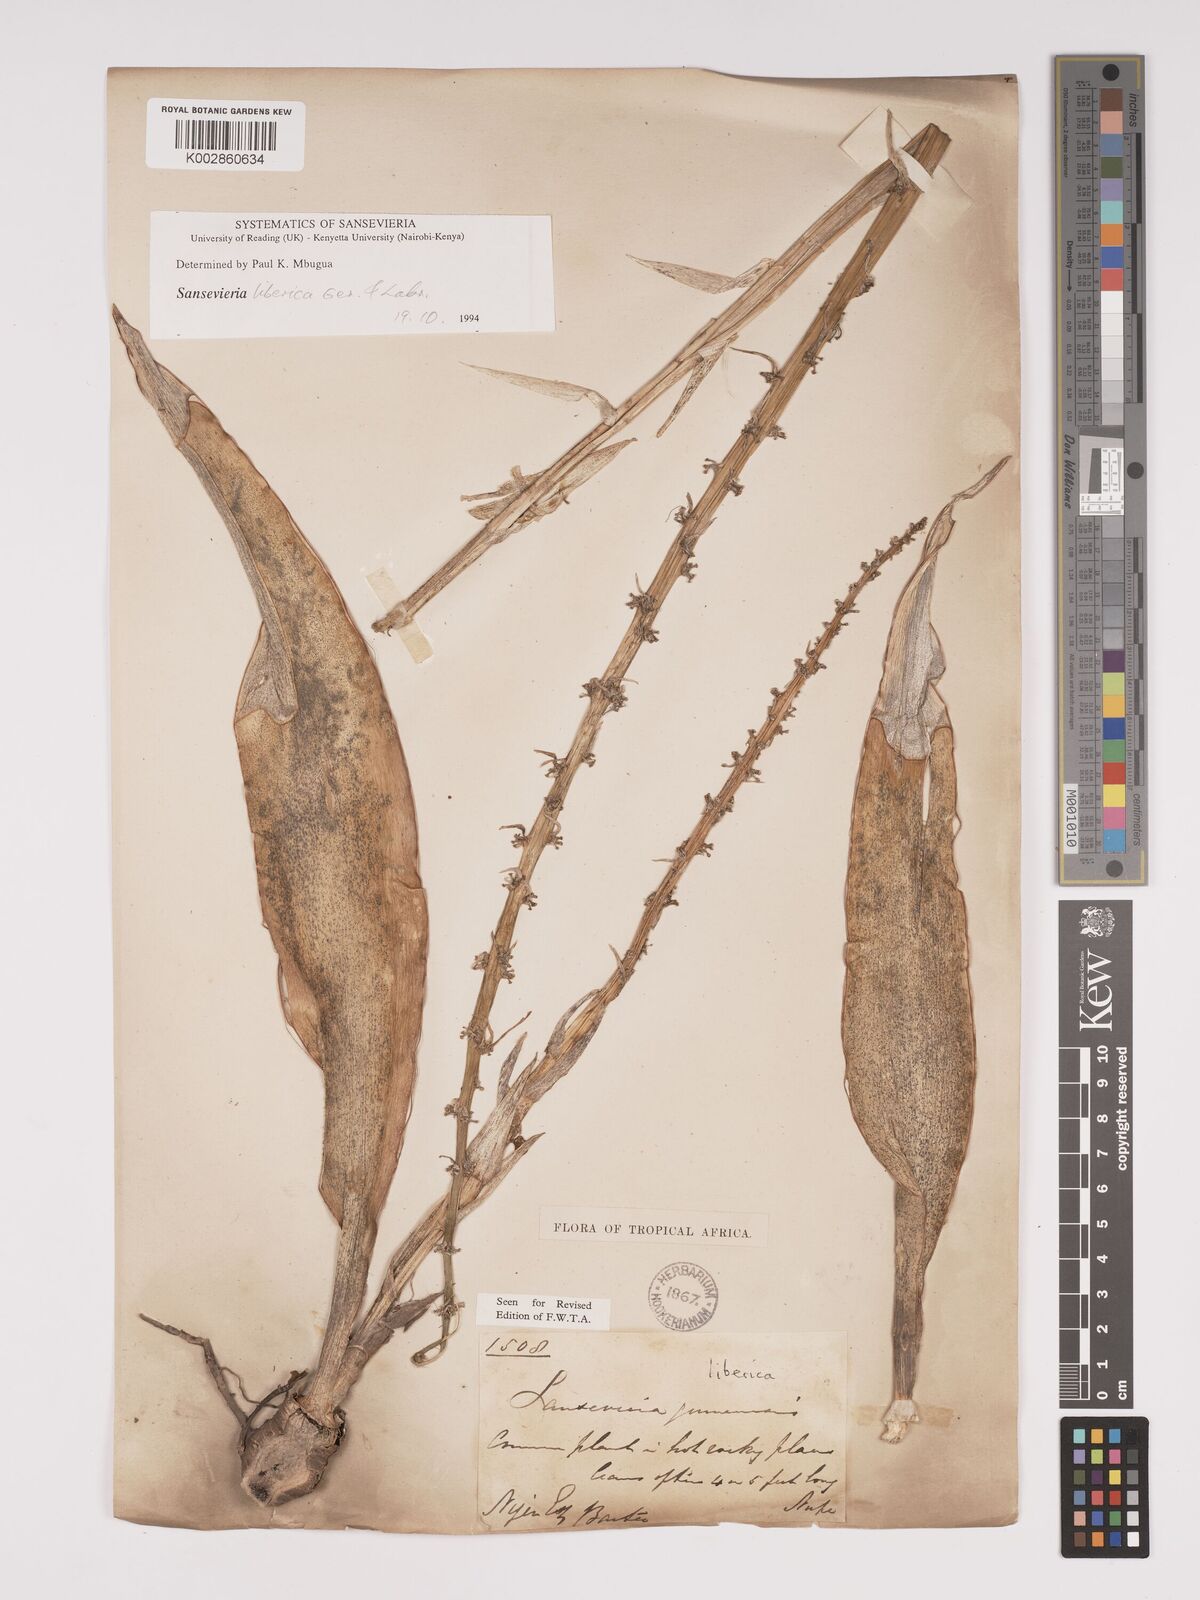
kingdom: Plantae
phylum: Tracheophyta
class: Liliopsida
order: Asparagales
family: Asparagaceae
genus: Dracaena
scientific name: Dracaena liberica
